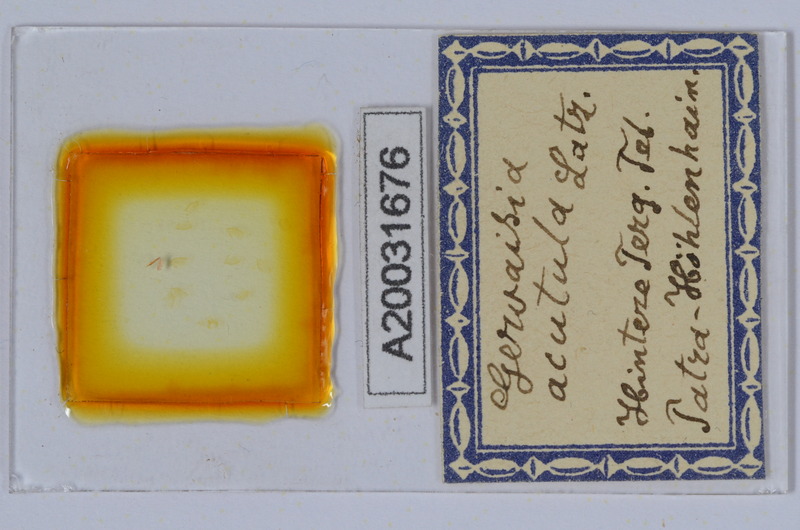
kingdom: Animalia
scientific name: Animalia
